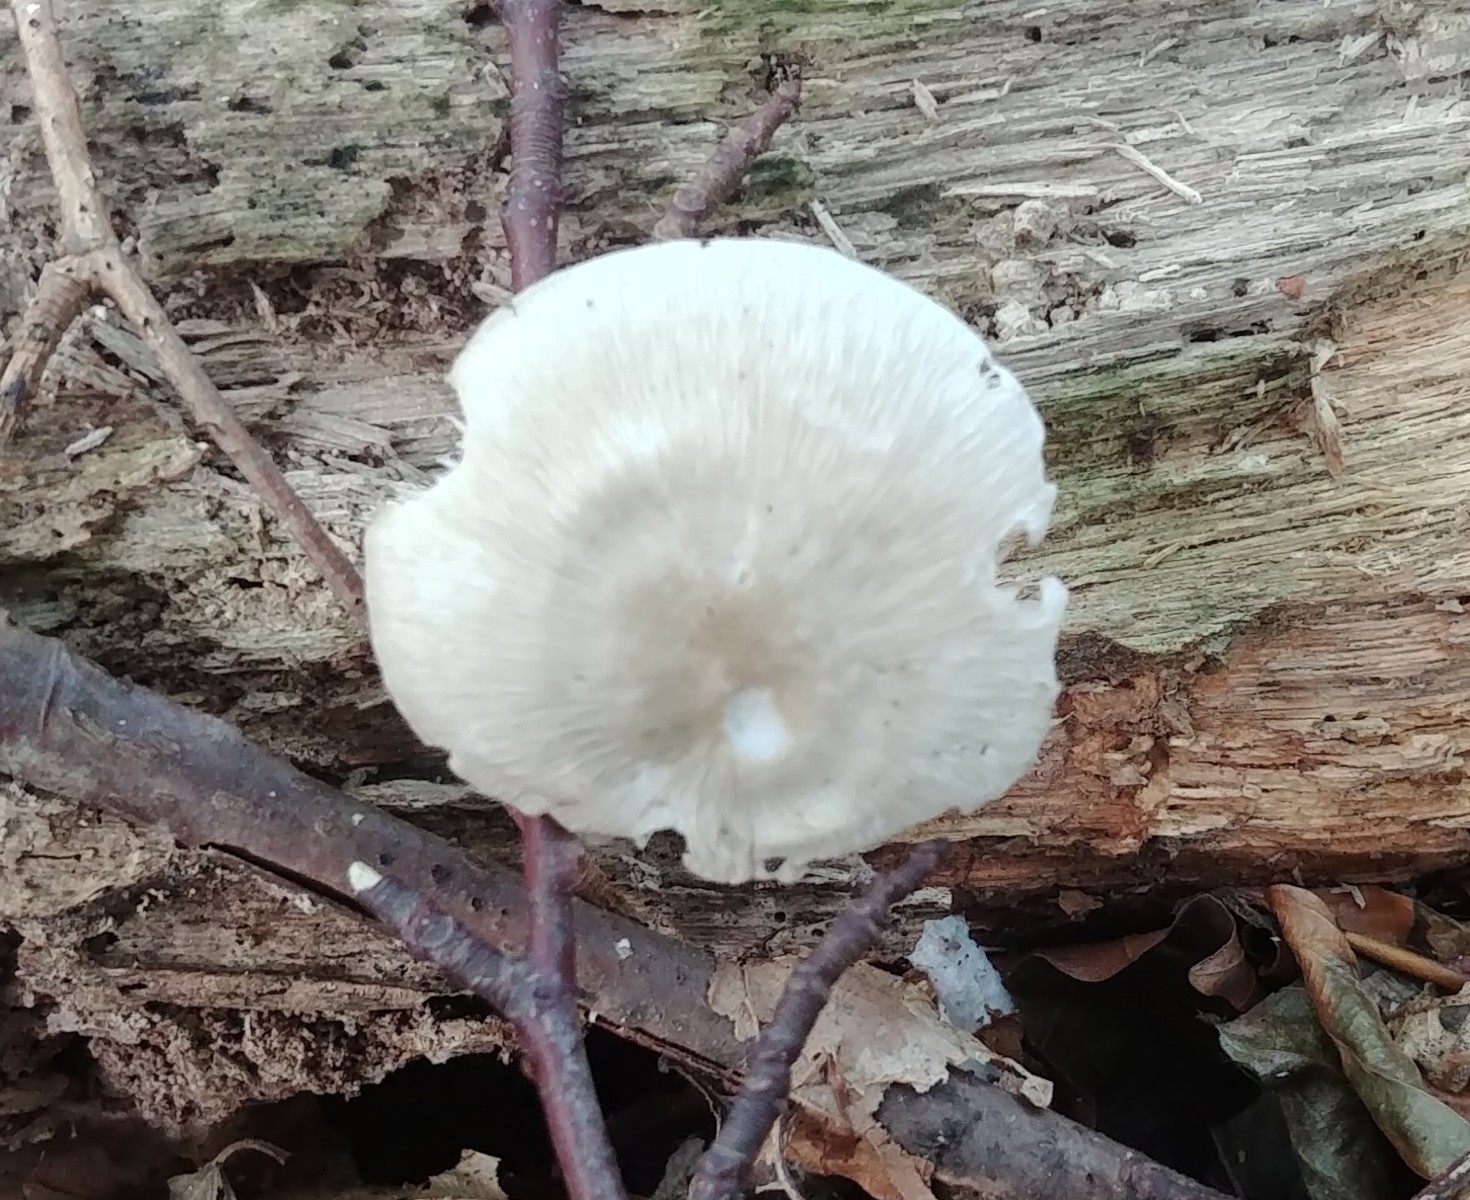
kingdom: Fungi
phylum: Basidiomycota
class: Agaricomycetes
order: Agaricales
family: Mycenaceae
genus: Mycena
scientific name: Mycena galericulata
